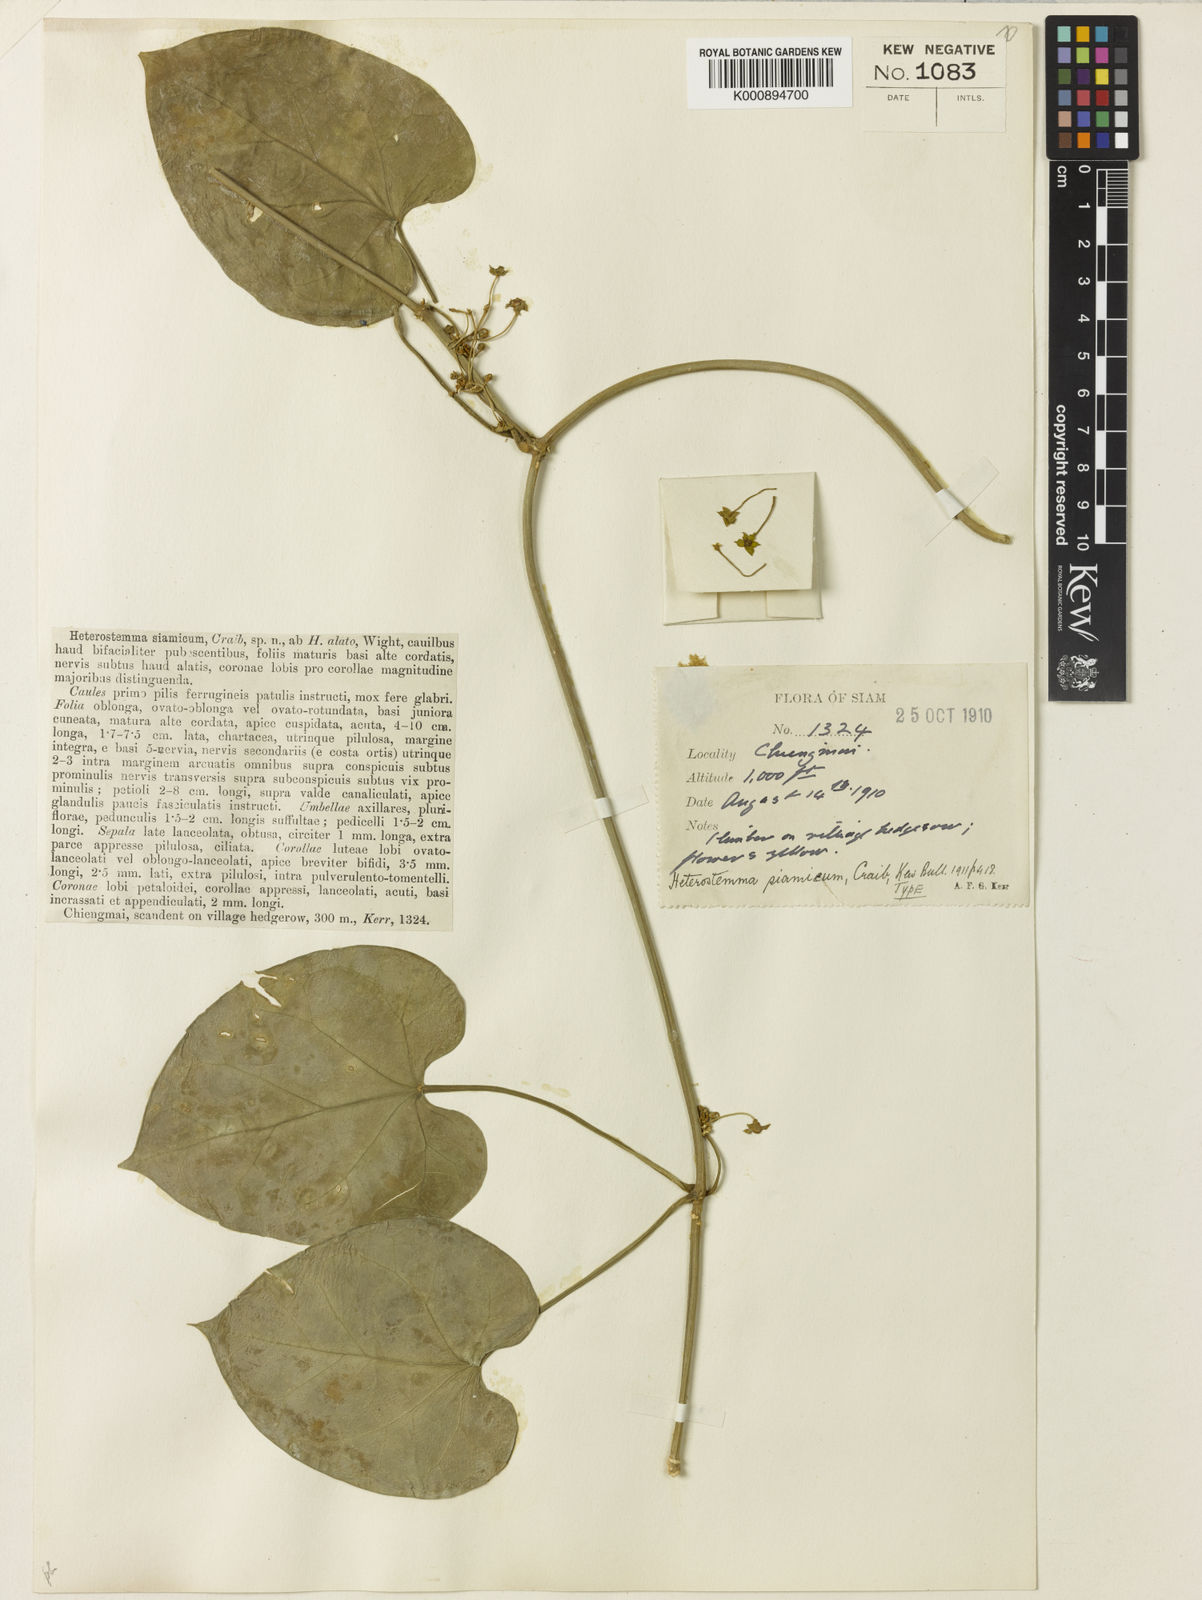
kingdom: Plantae
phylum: Tracheophyta
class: Magnoliopsida
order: Gentianales
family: Apocynaceae
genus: Heterostemma
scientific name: Heterostemma siamicum
